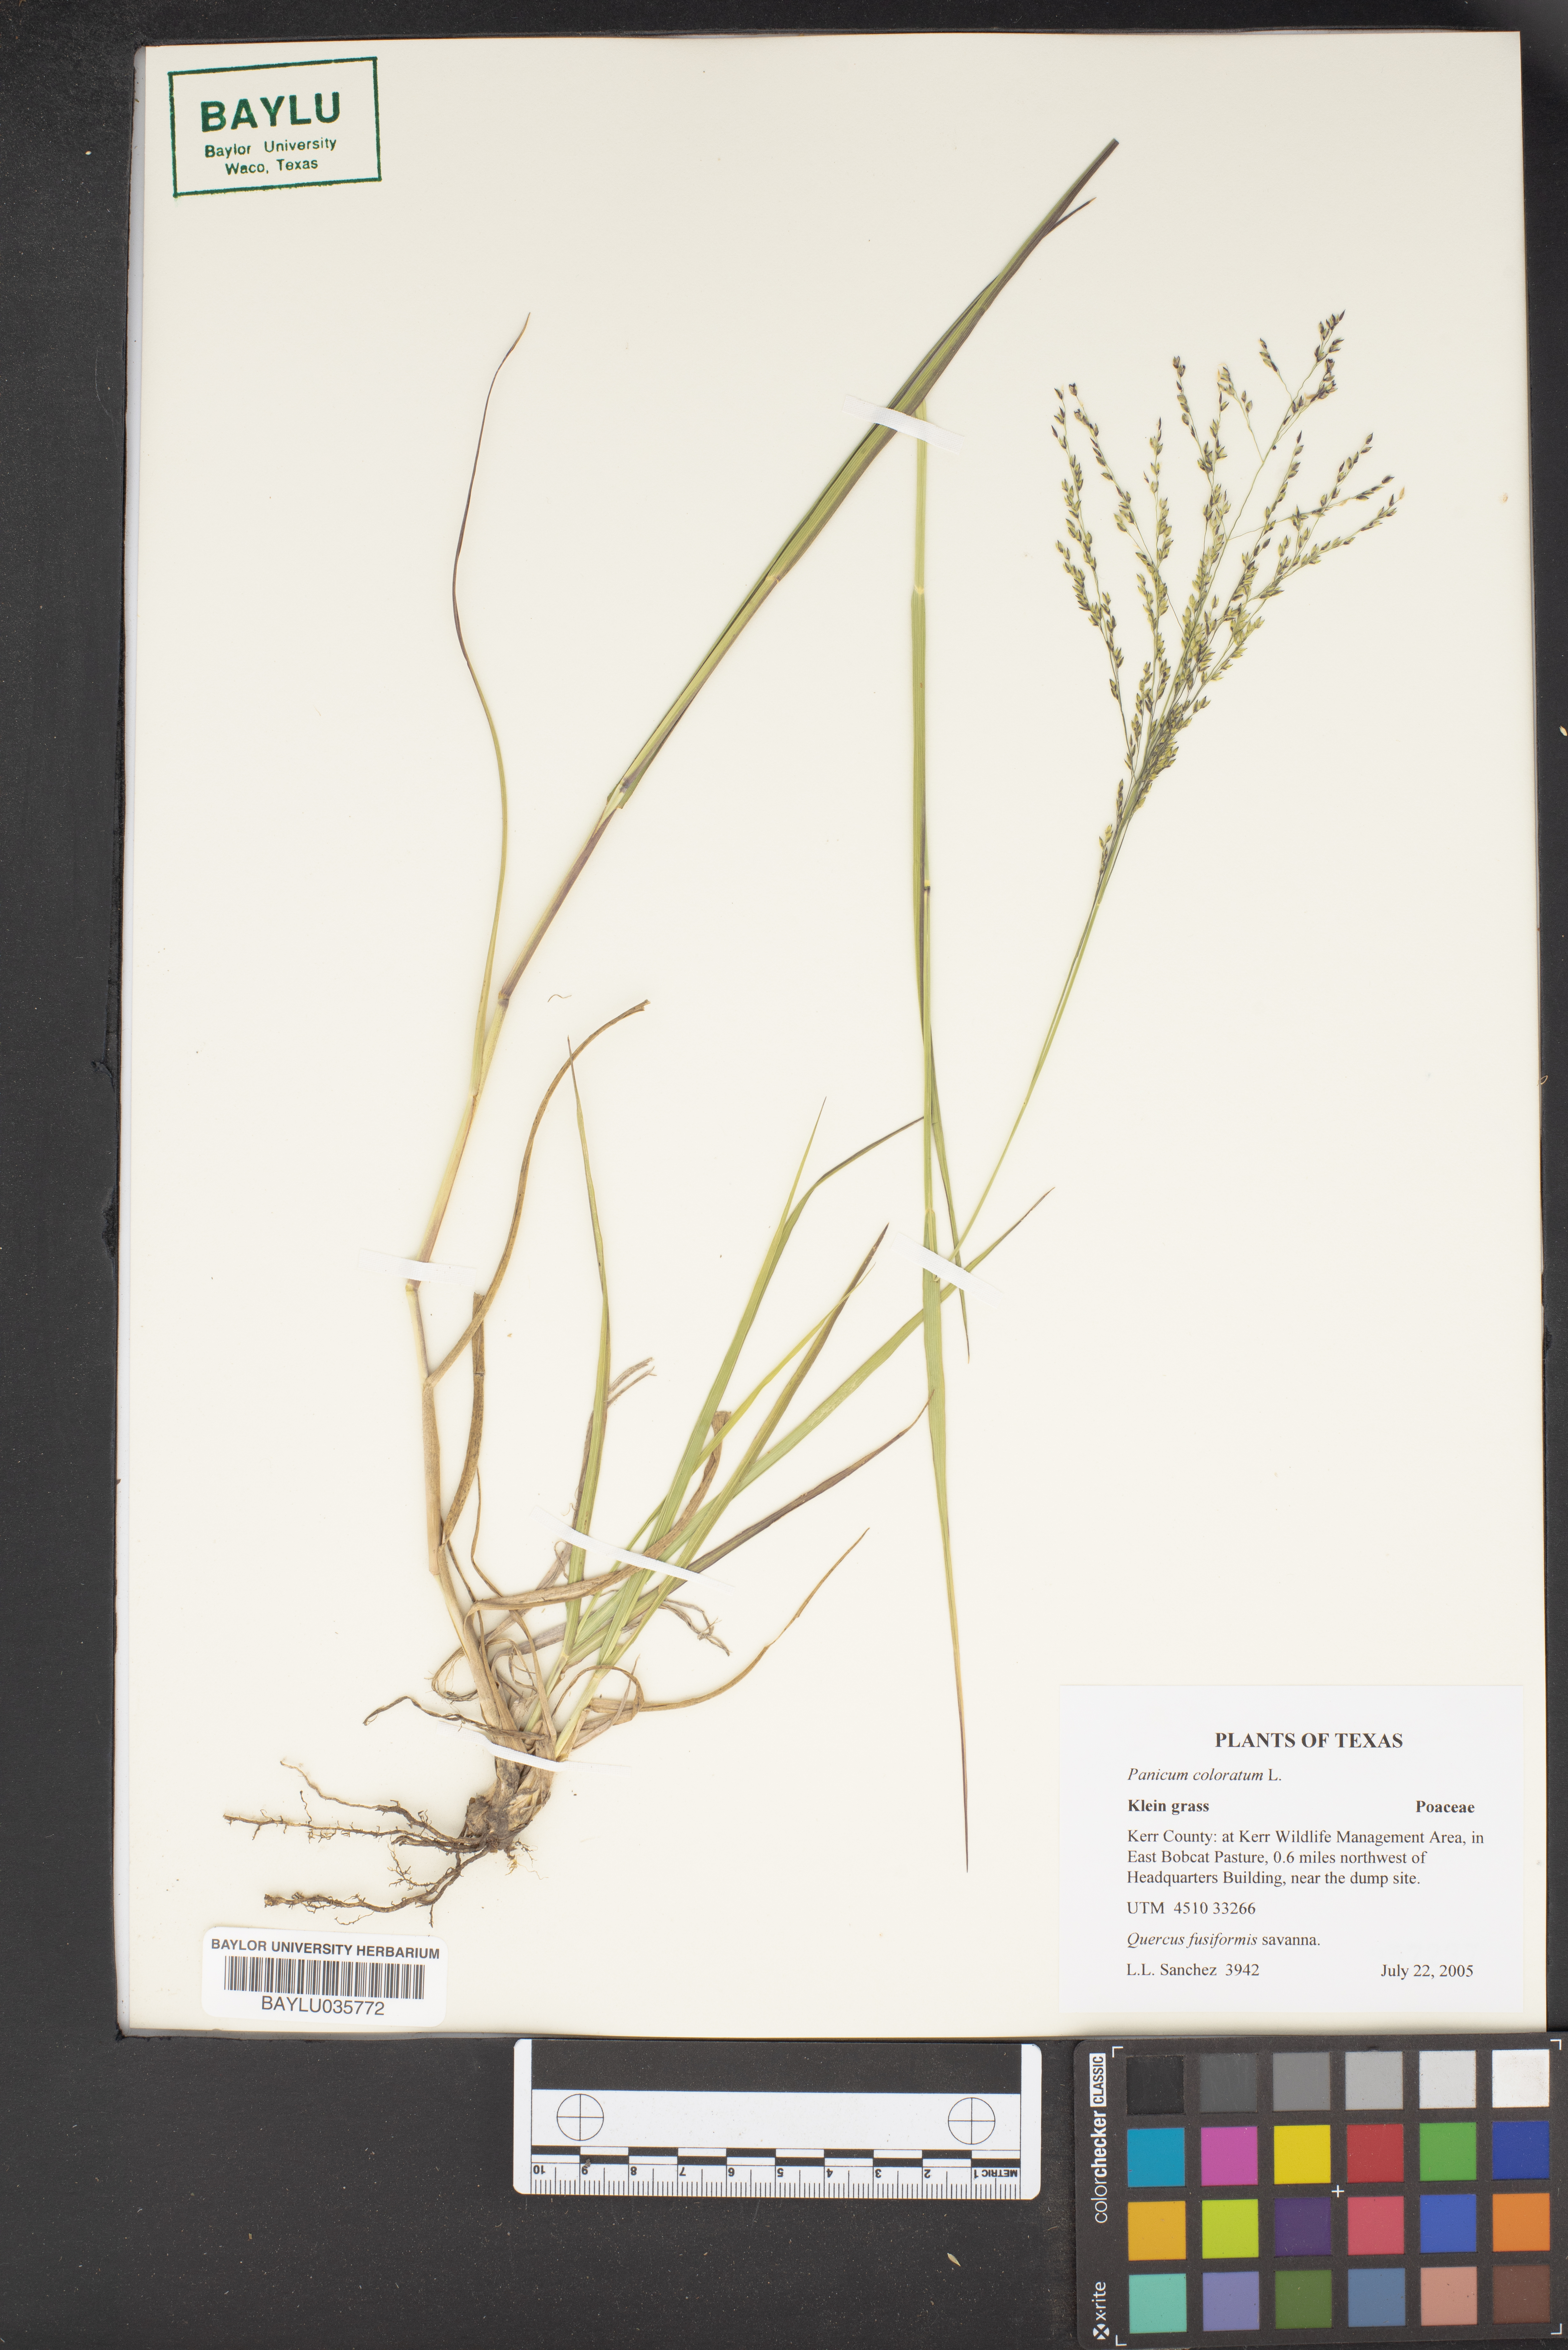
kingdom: Plantae
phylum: Tracheophyta
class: Liliopsida
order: Poales
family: Poaceae
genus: Panicum
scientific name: Panicum coloratum
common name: Kleingrass
